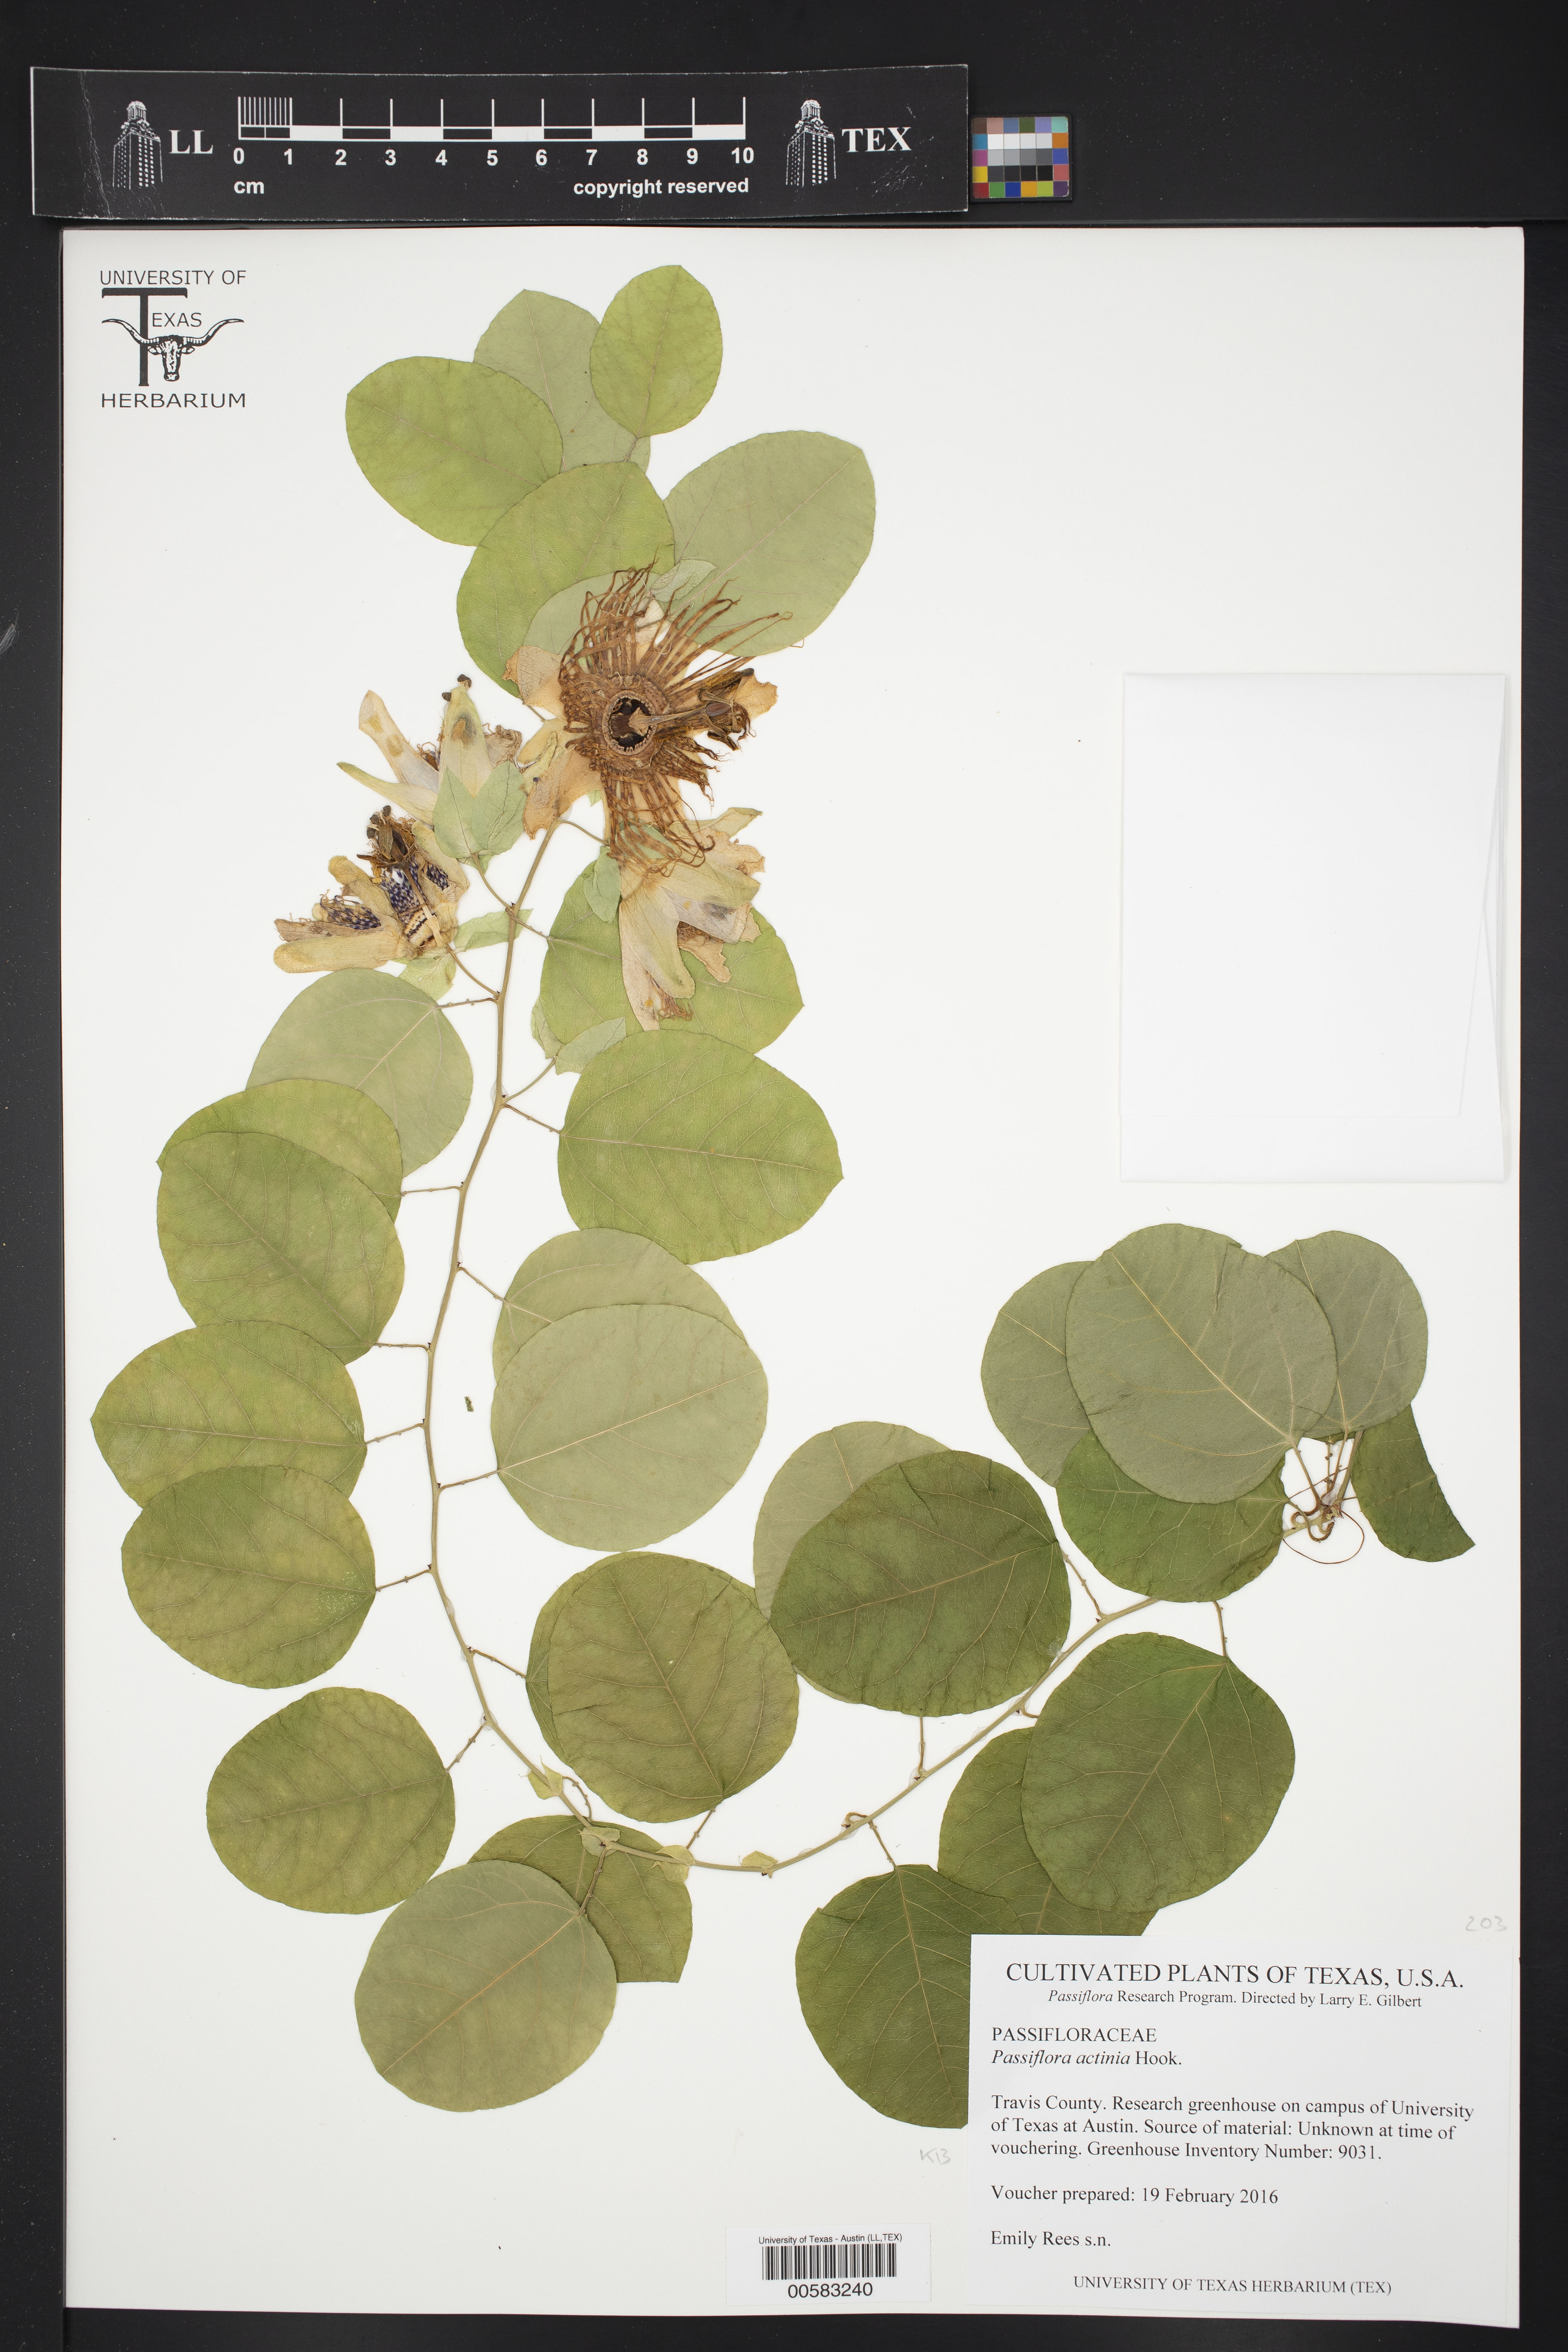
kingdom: Plantae
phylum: Tracheophyta
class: Magnoliopsida
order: Malpighiales
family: Passifloraceae
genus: Passiflora
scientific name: Passiflora actinia
